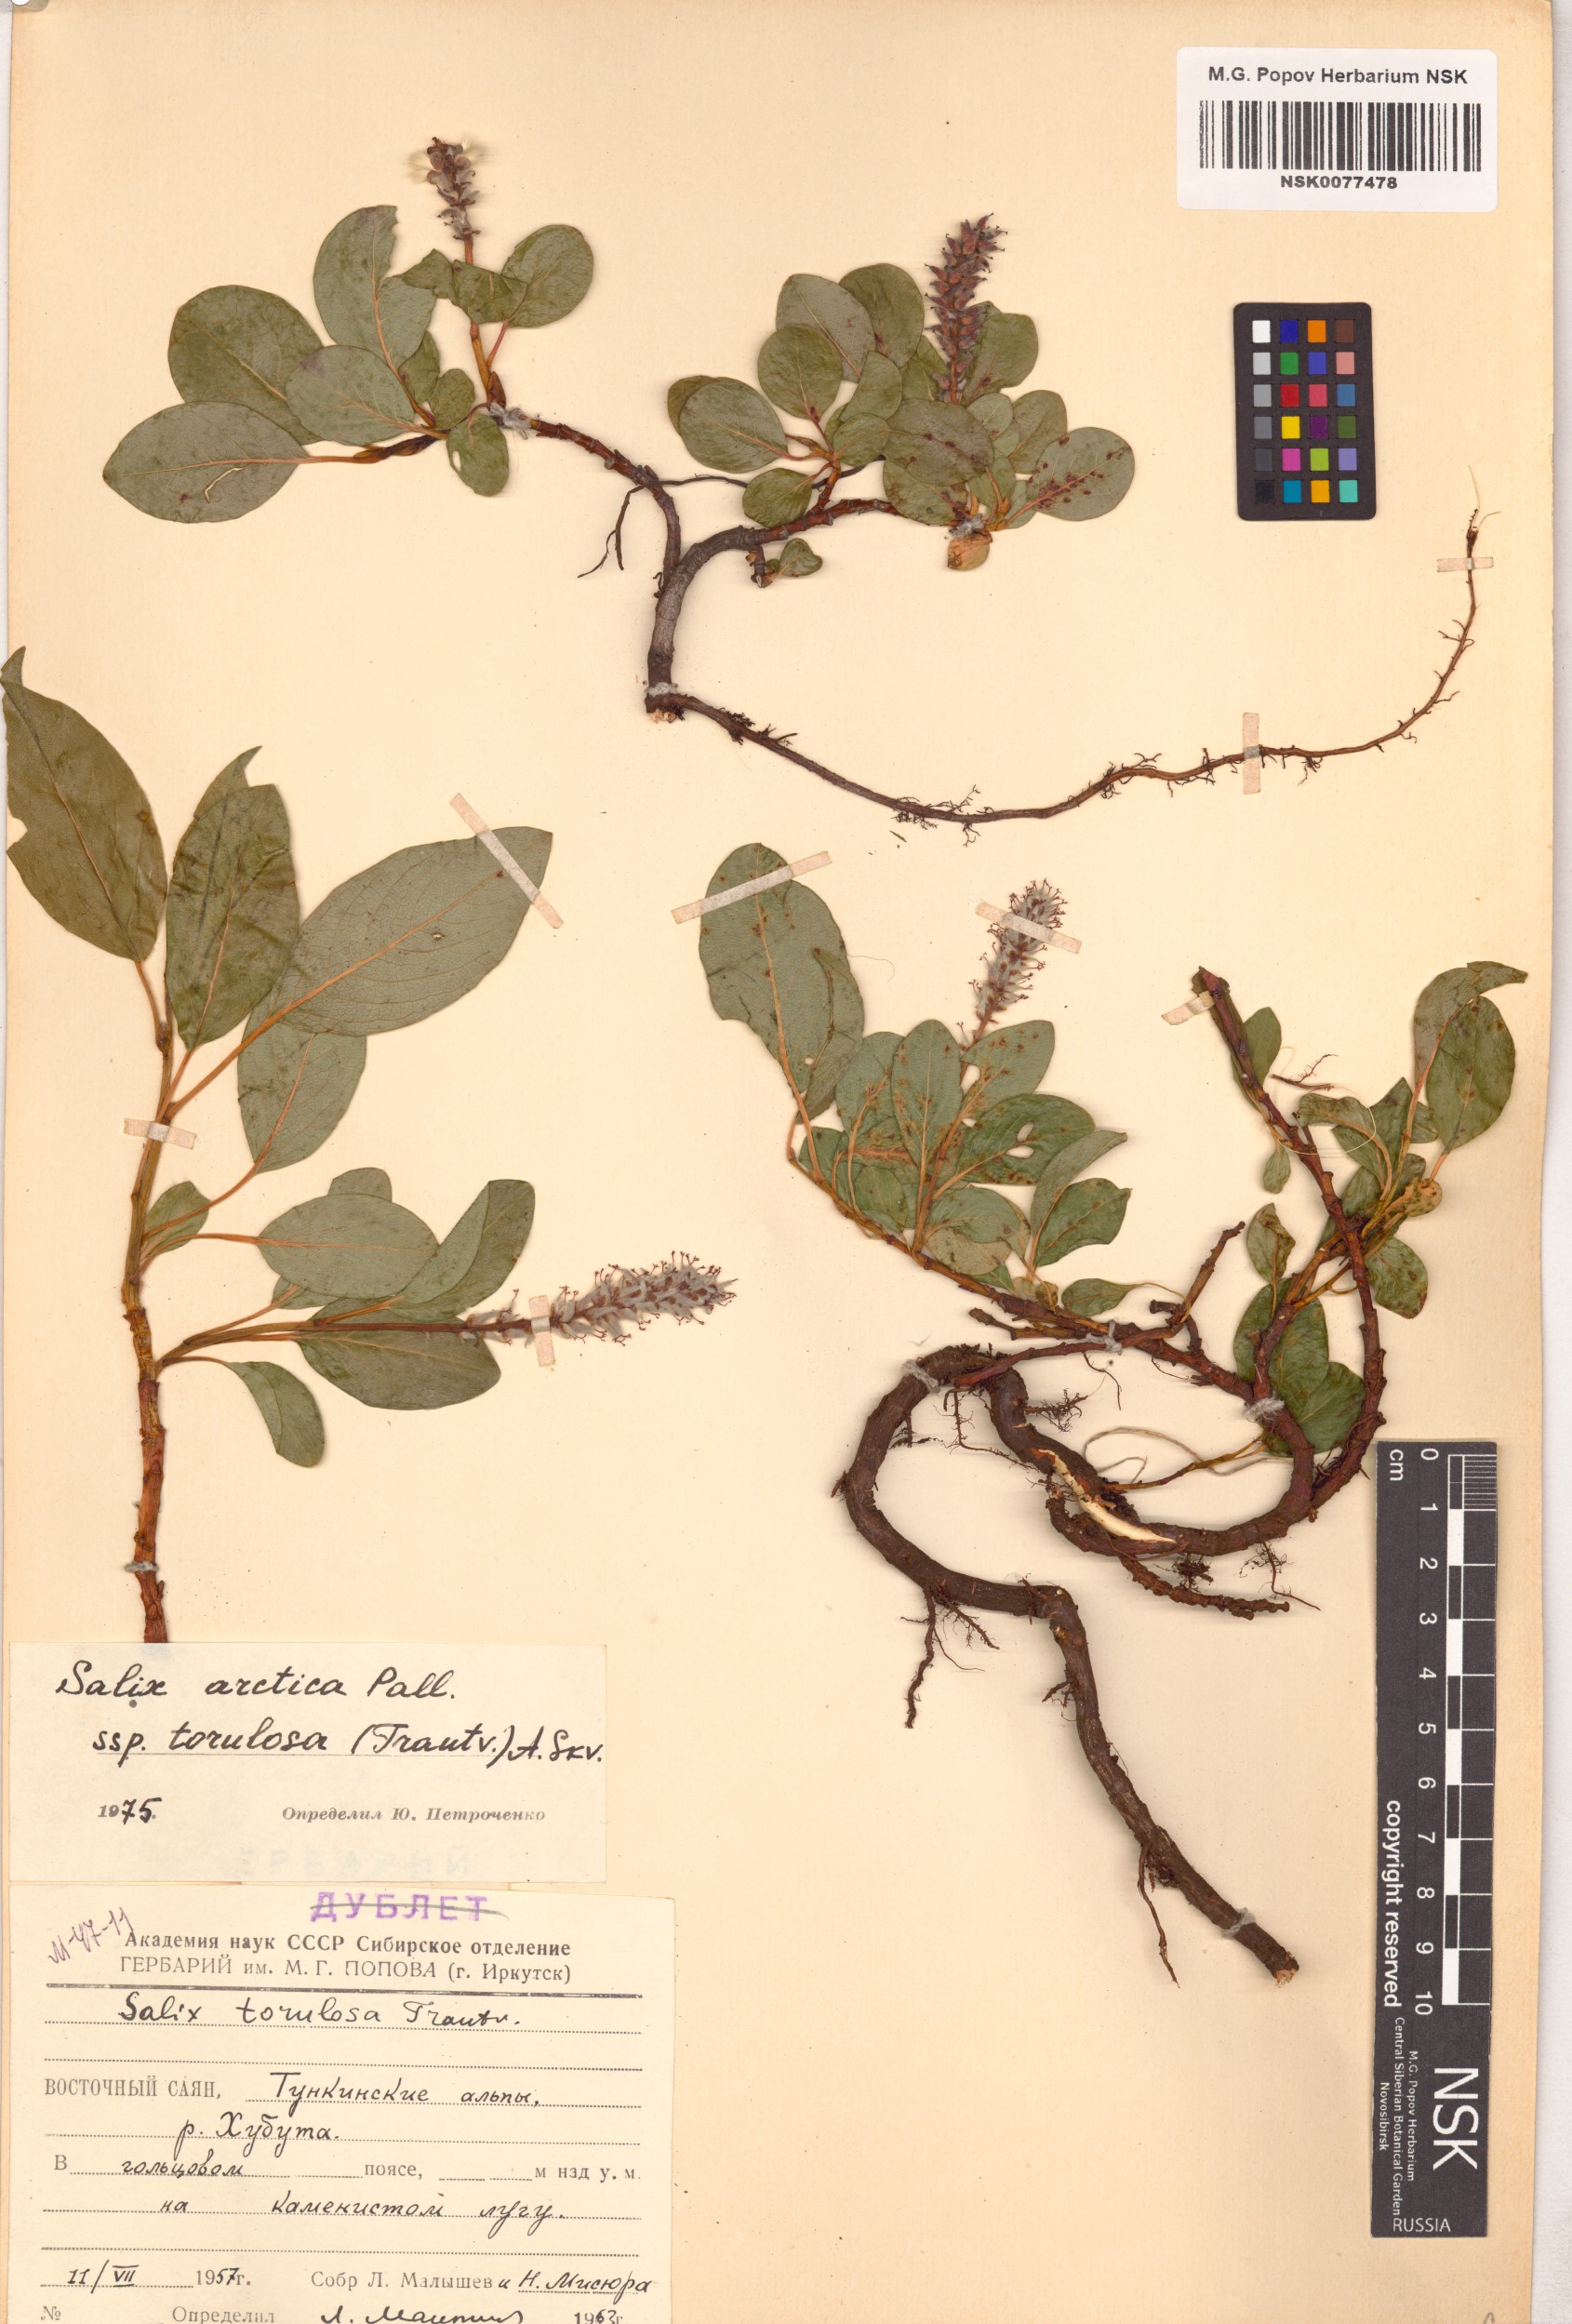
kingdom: Plantae
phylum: Tracheophyta
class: Magnoliopsida
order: Malpighiales
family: Salicaceae
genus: Salix
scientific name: Salix arctica
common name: Arctic willow
